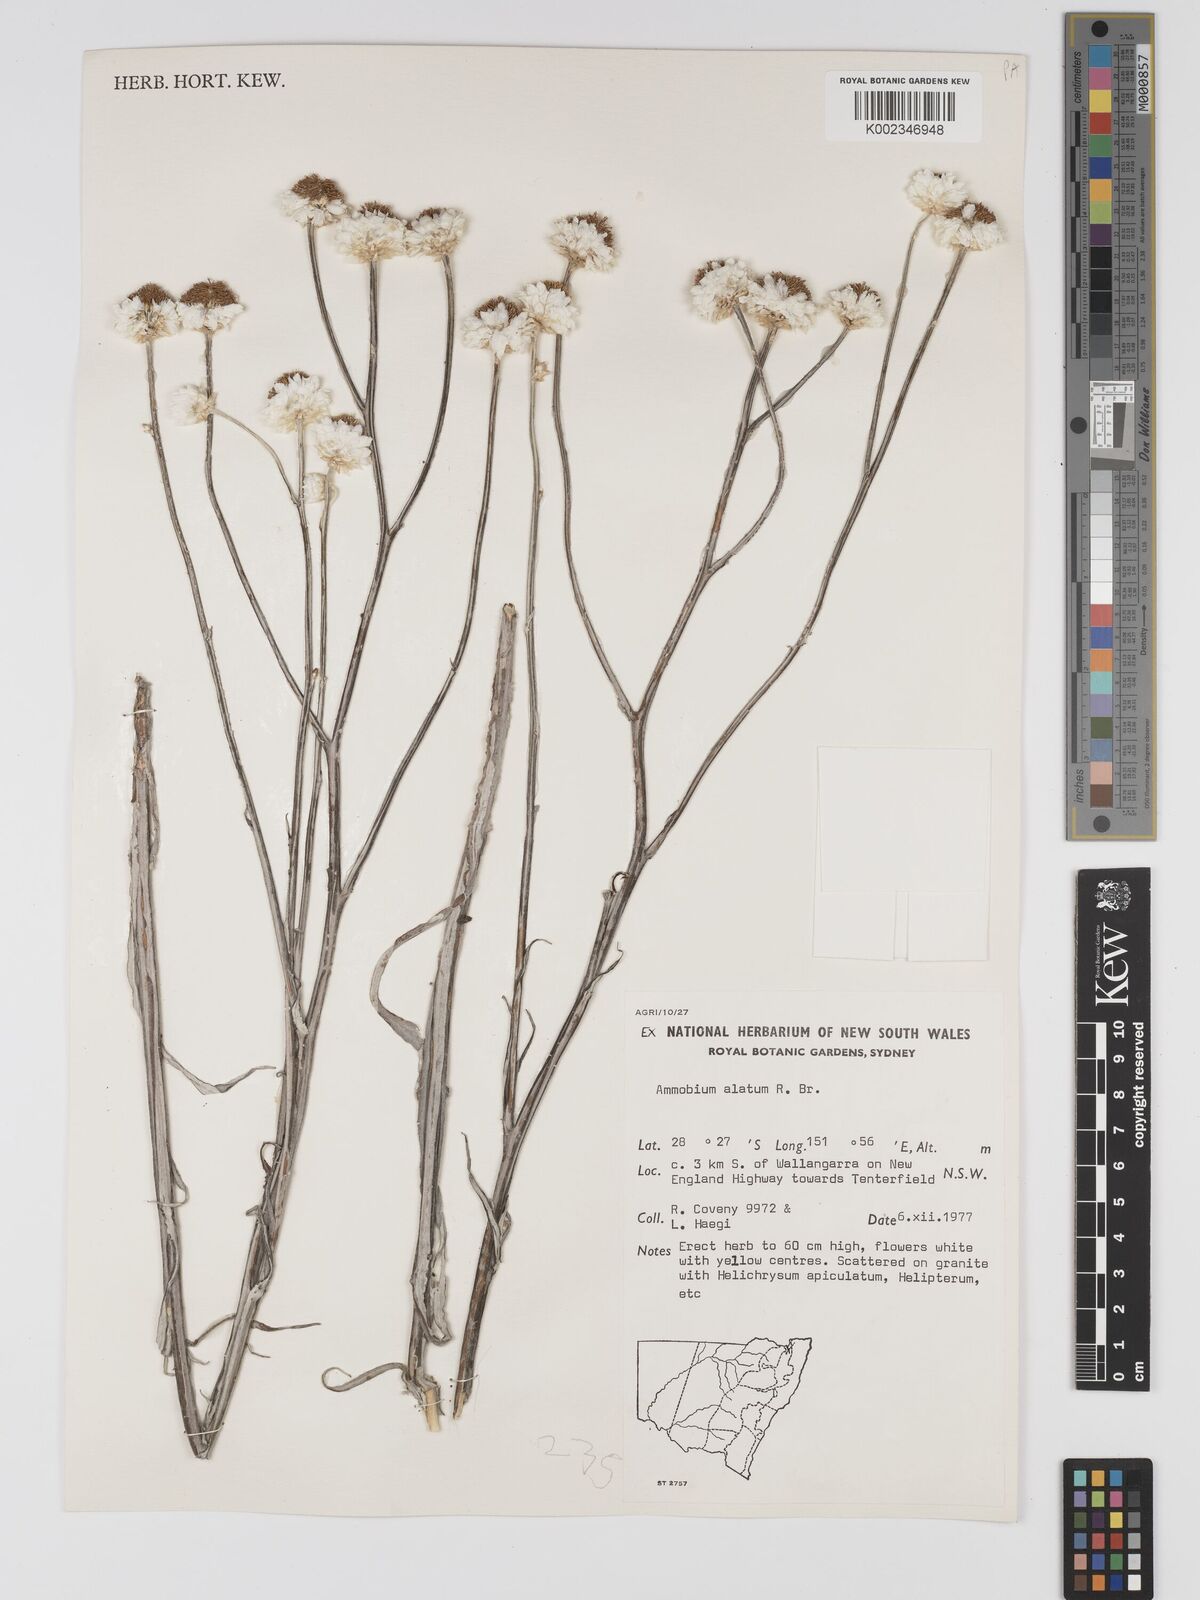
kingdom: Plantae
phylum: Tracheophyta
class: Magnoliopsida
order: Asterales
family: Asteraceae
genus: Ammobium
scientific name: Ammobium alatum
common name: Winged everlasting
